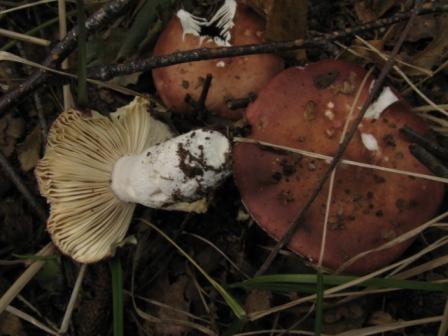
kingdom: Fungi
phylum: Basidiomycota
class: Agaricomycetes
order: Russulales
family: Russulaceae
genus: Russula
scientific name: Russula velenovskyi
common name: orangerød skørhat
